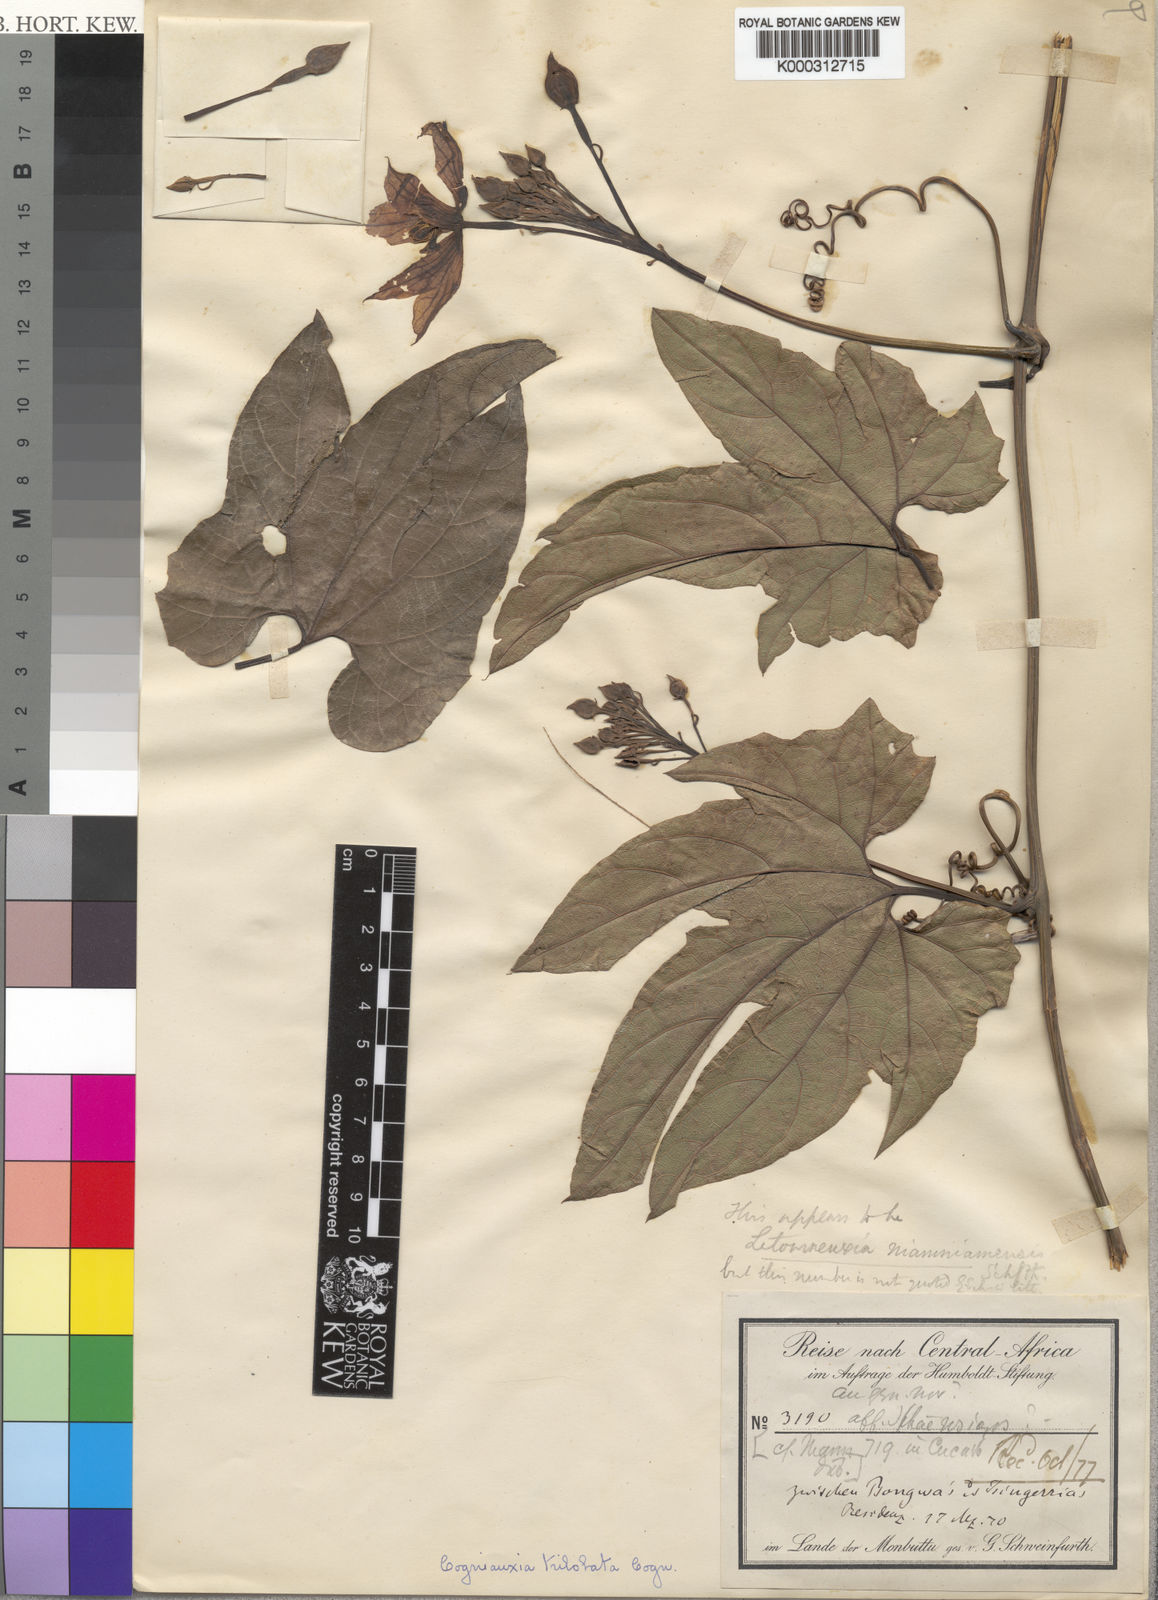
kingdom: Plantae
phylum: Tracheophyta
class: Magnoliopsida
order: Cucurbitales
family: Cucurbitaceae
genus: Cogniauxia
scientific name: Cogniauxia trilobata
